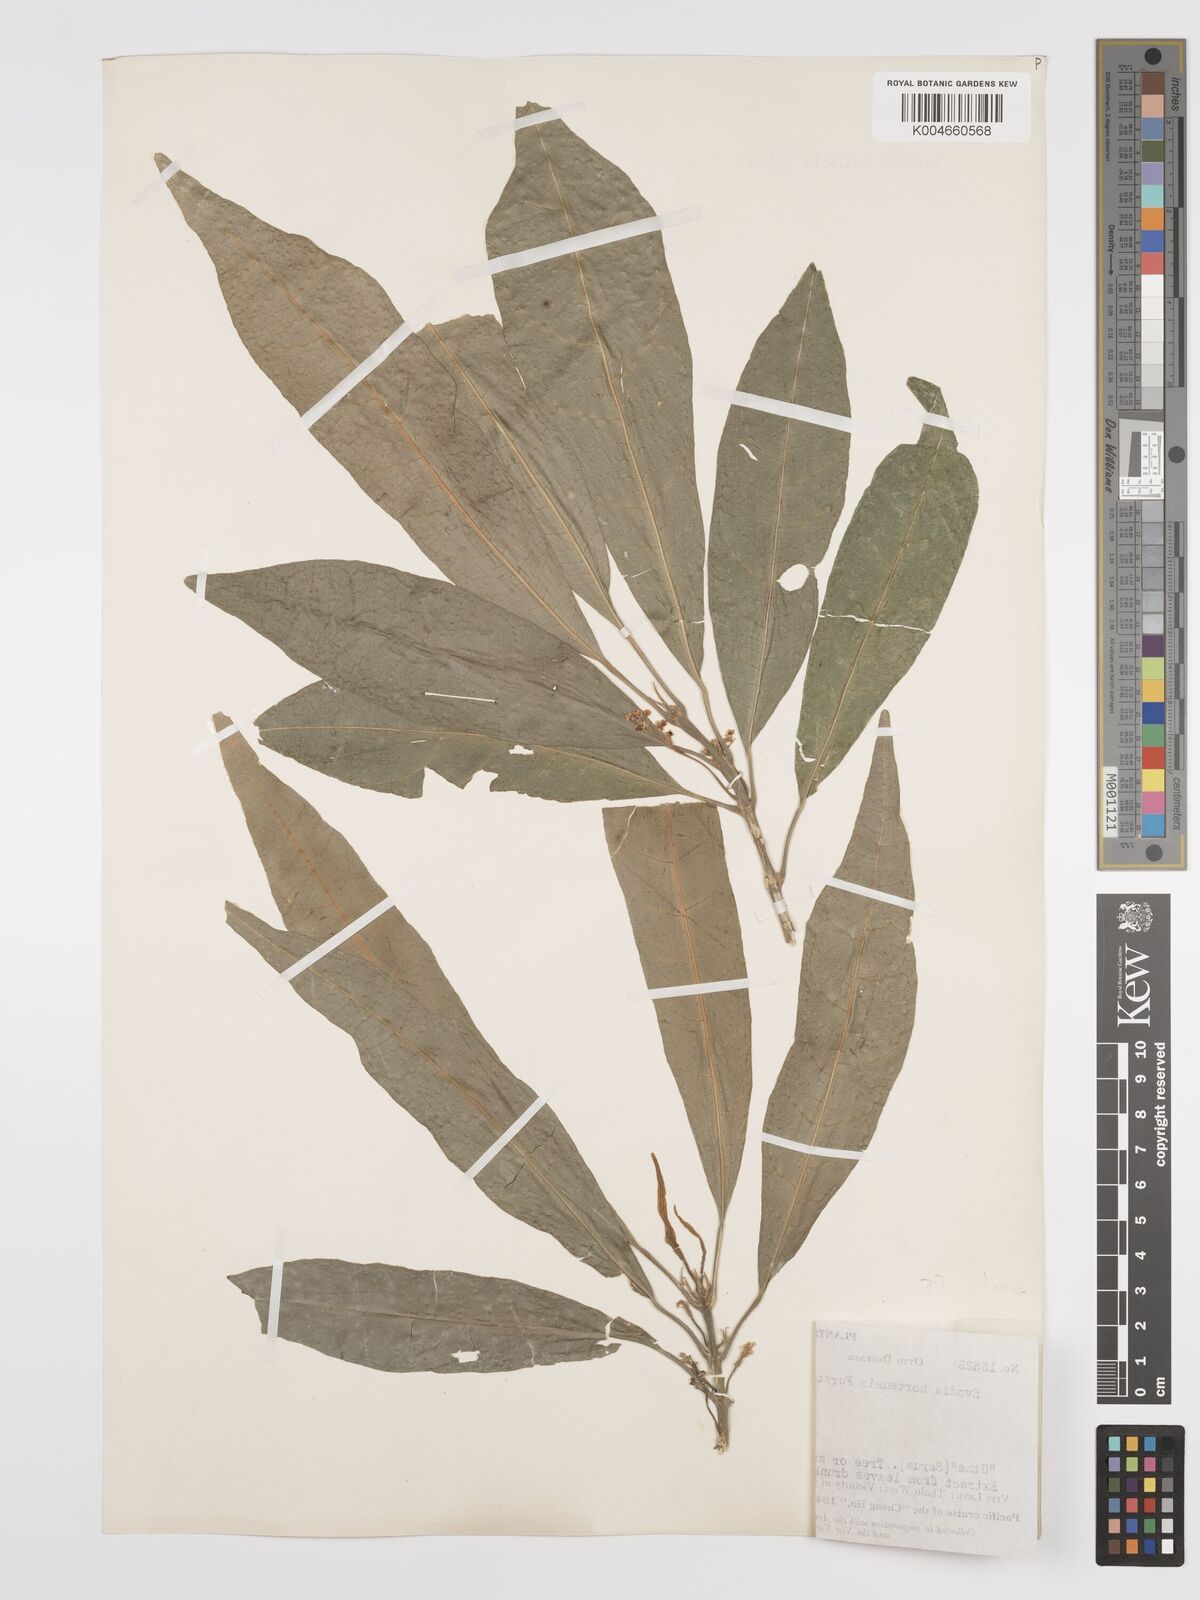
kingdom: Plantae
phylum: Tracheophyta
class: Magnoliopsida
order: Sapindales
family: Rutaceae
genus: Euodia
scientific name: Euodia hortensis
